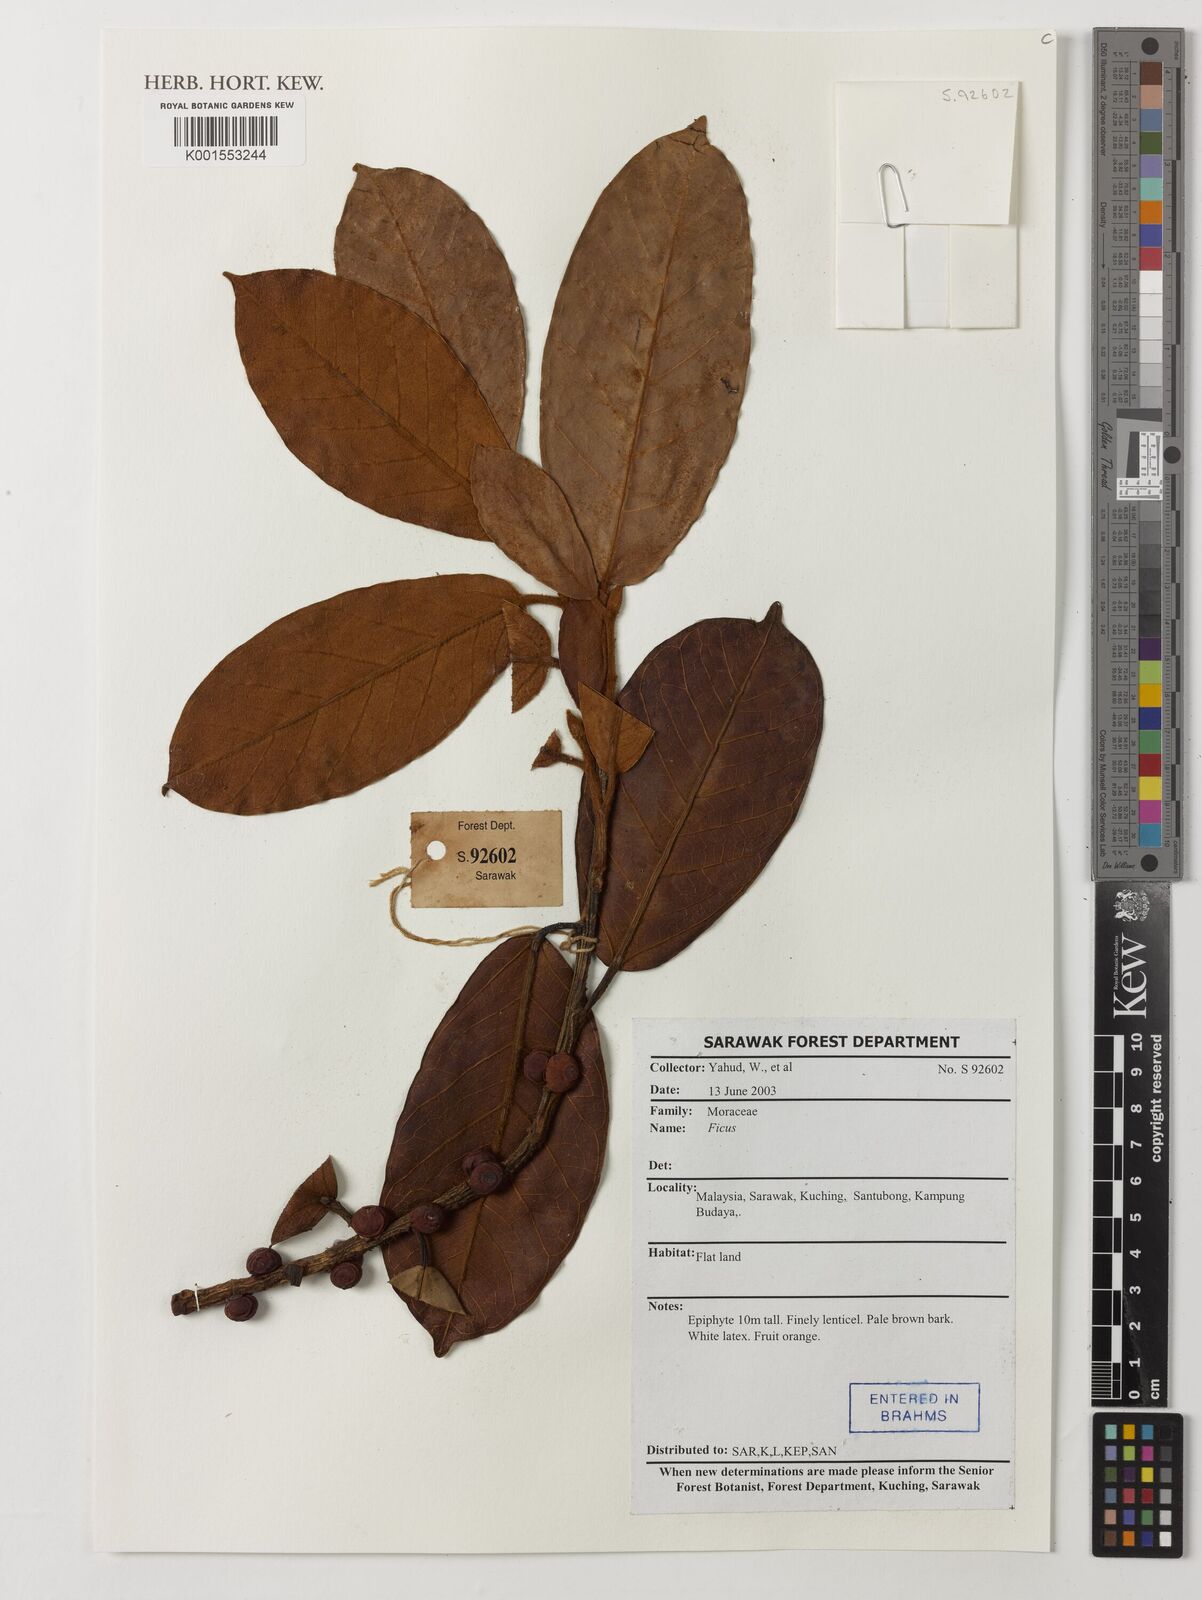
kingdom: Plantae
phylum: Tracheophyta
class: Magnoliopsida
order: Rosales
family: Moraceae
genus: Ficus
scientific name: Ficus
